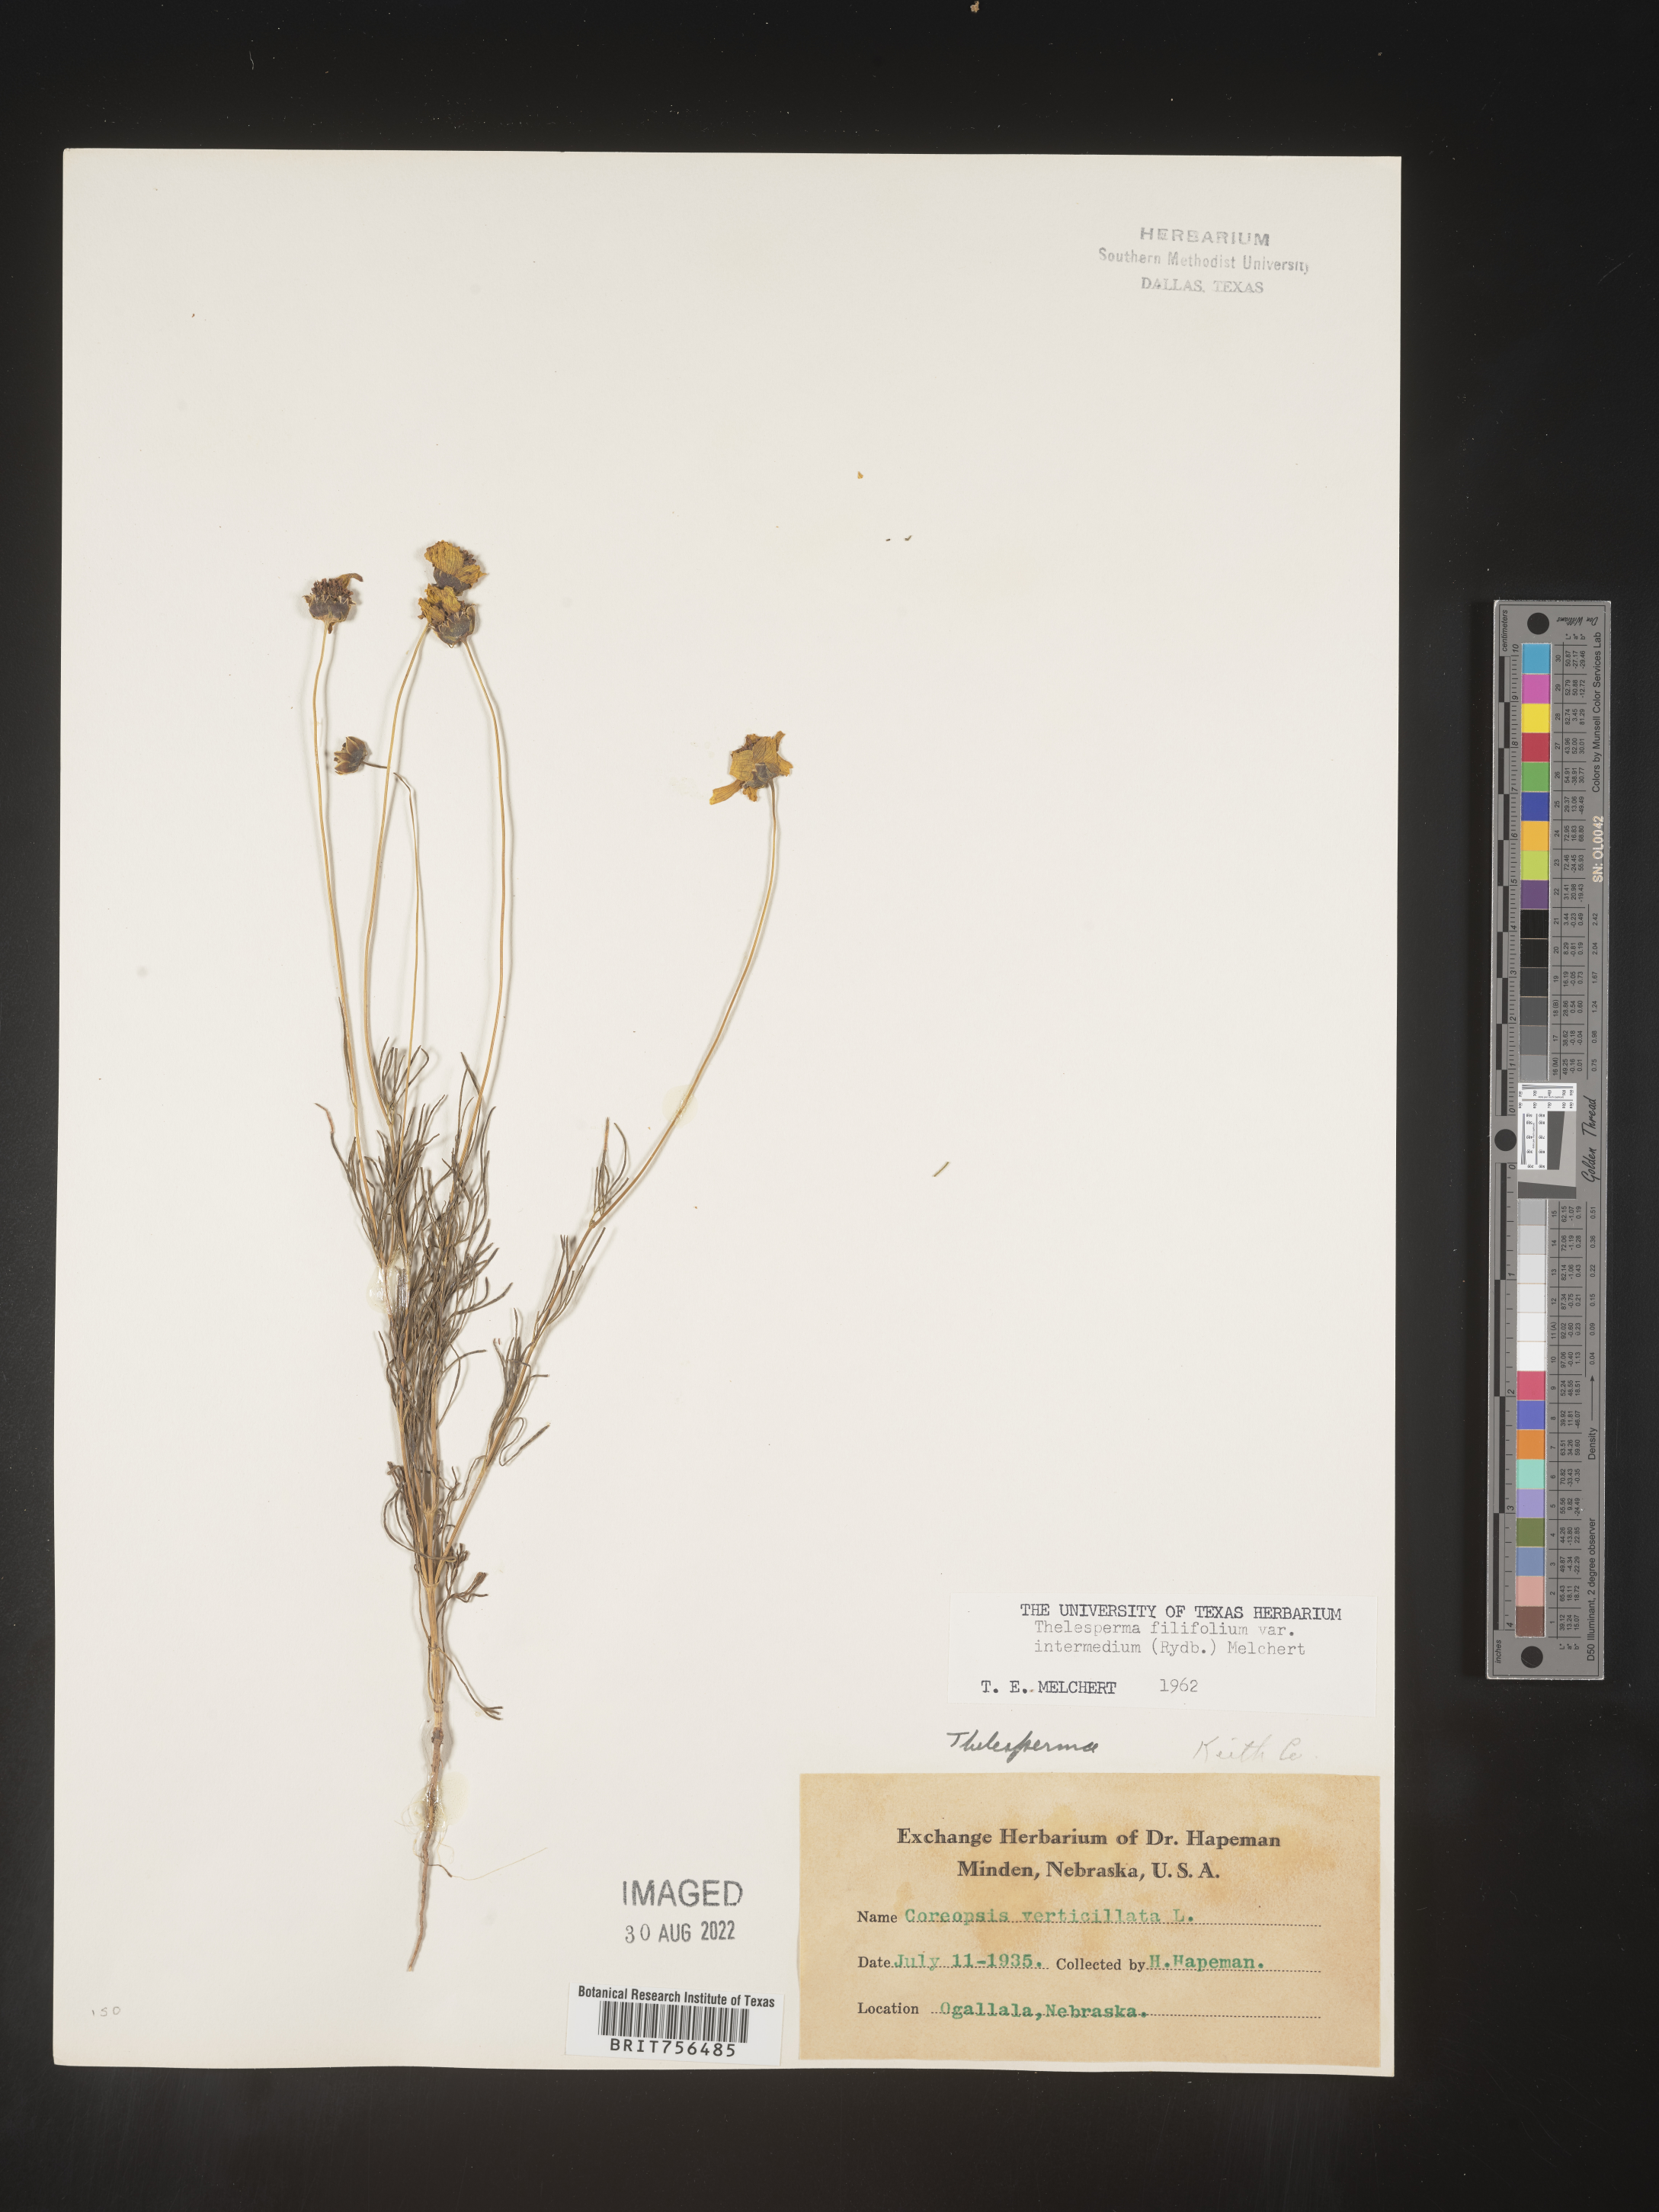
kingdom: Plantae
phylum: Tracheophyta
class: Magnoliopsida
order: Asterales
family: Asteraceae
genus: Thelesperma
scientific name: Thelesperma filifolium
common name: Stiff greenthread
